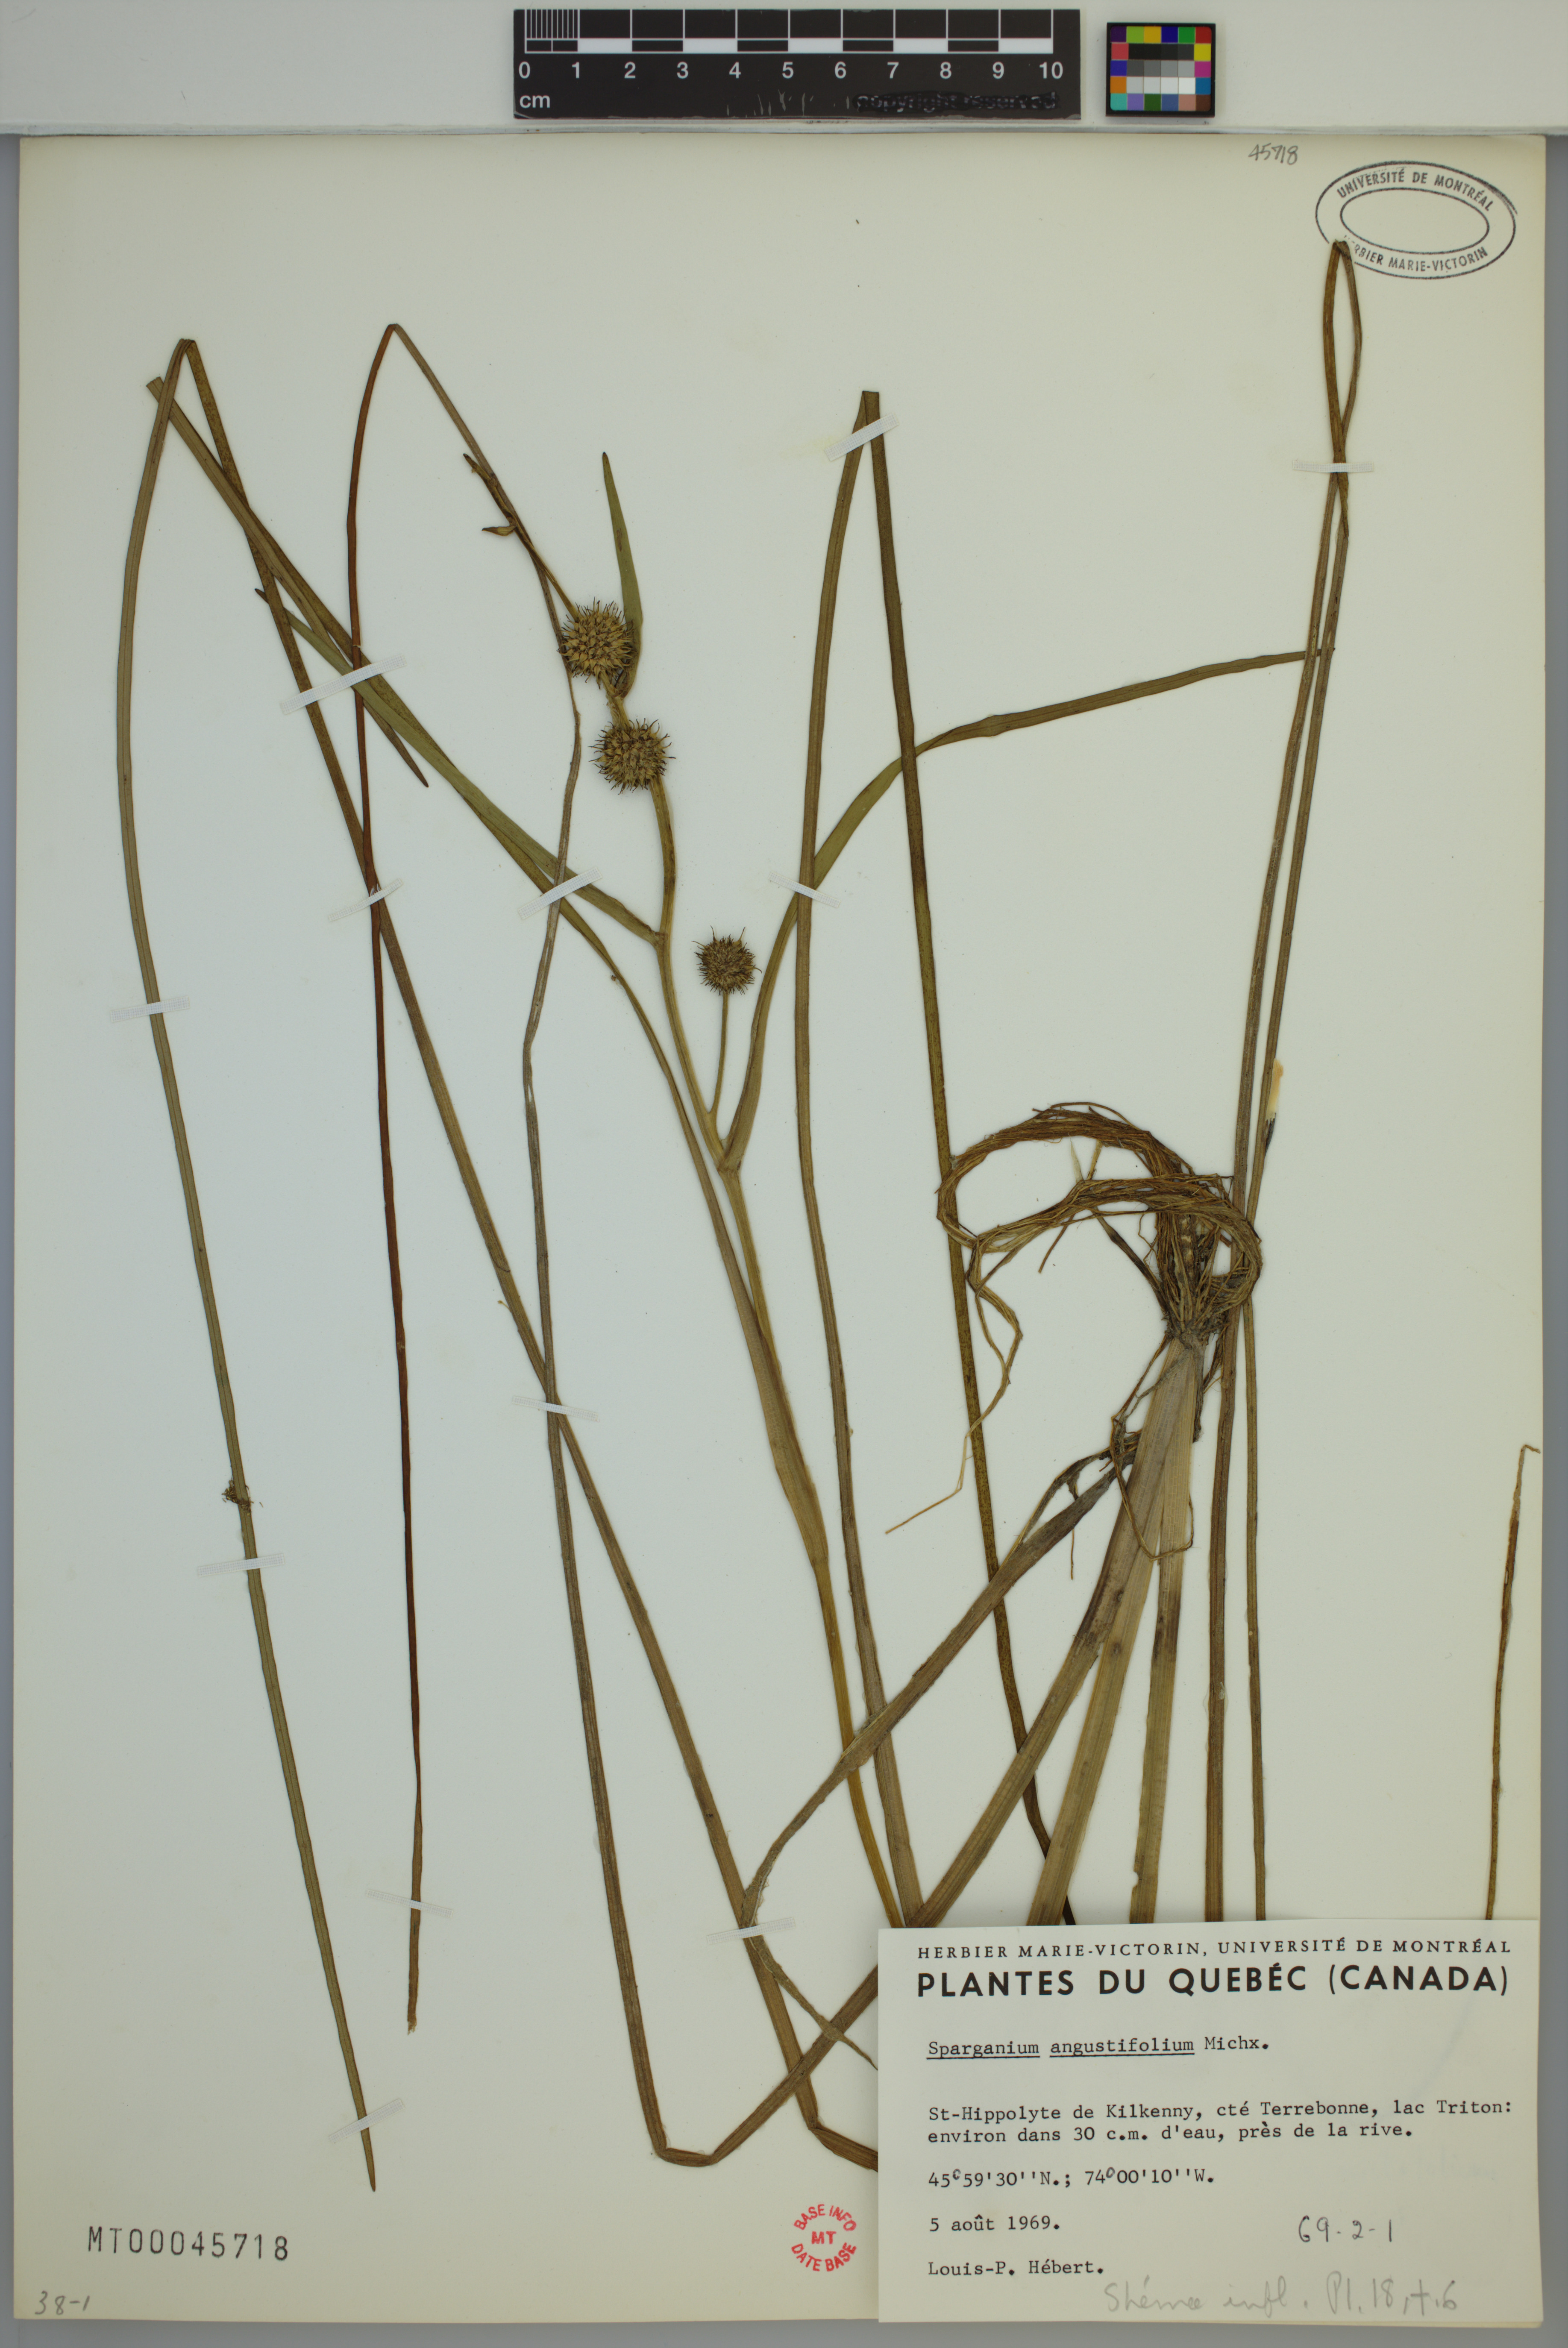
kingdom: Plantae
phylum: Tracheophyta
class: Liliopsida
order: Poales
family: Typhaceae
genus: Sparganium
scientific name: Sparganium angustifolium
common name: Floating bur-reed
